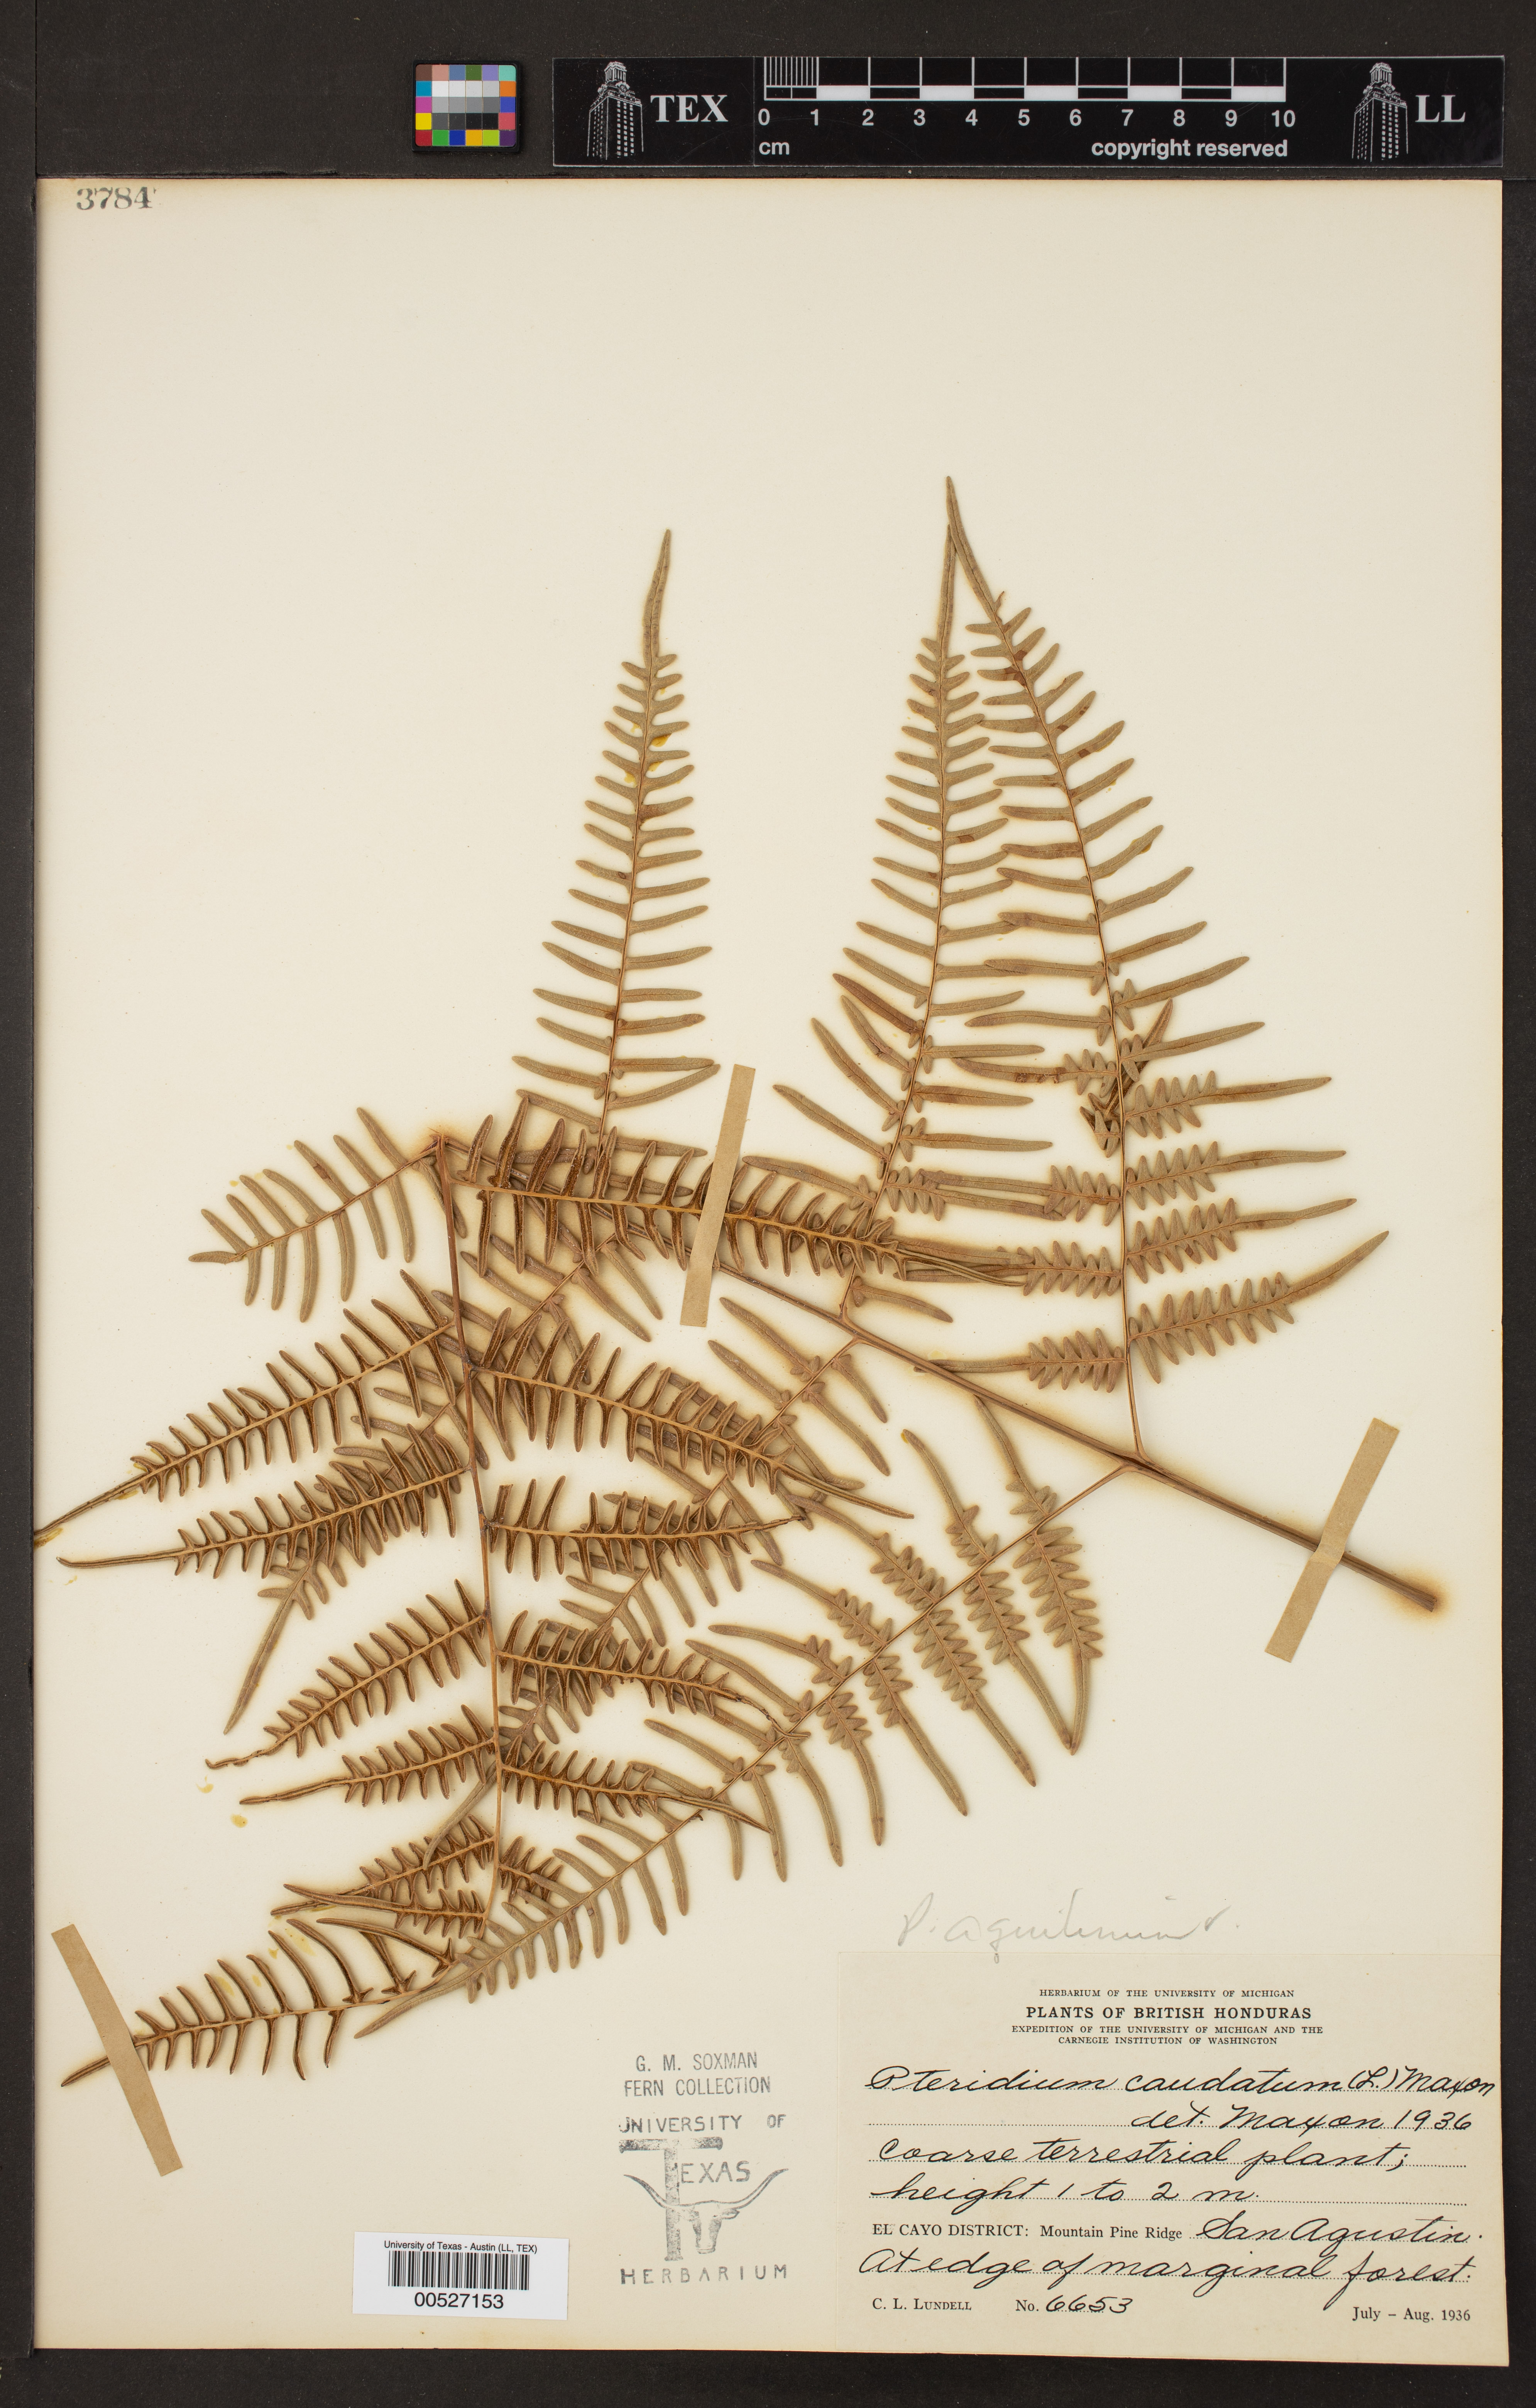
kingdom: Plantae
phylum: Tracheophyta
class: Polypodiopsida
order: Polypodiales
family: Dennstaedtiaceae
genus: Pteridium
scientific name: Pteridium caudatum
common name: Southern bracken fern
